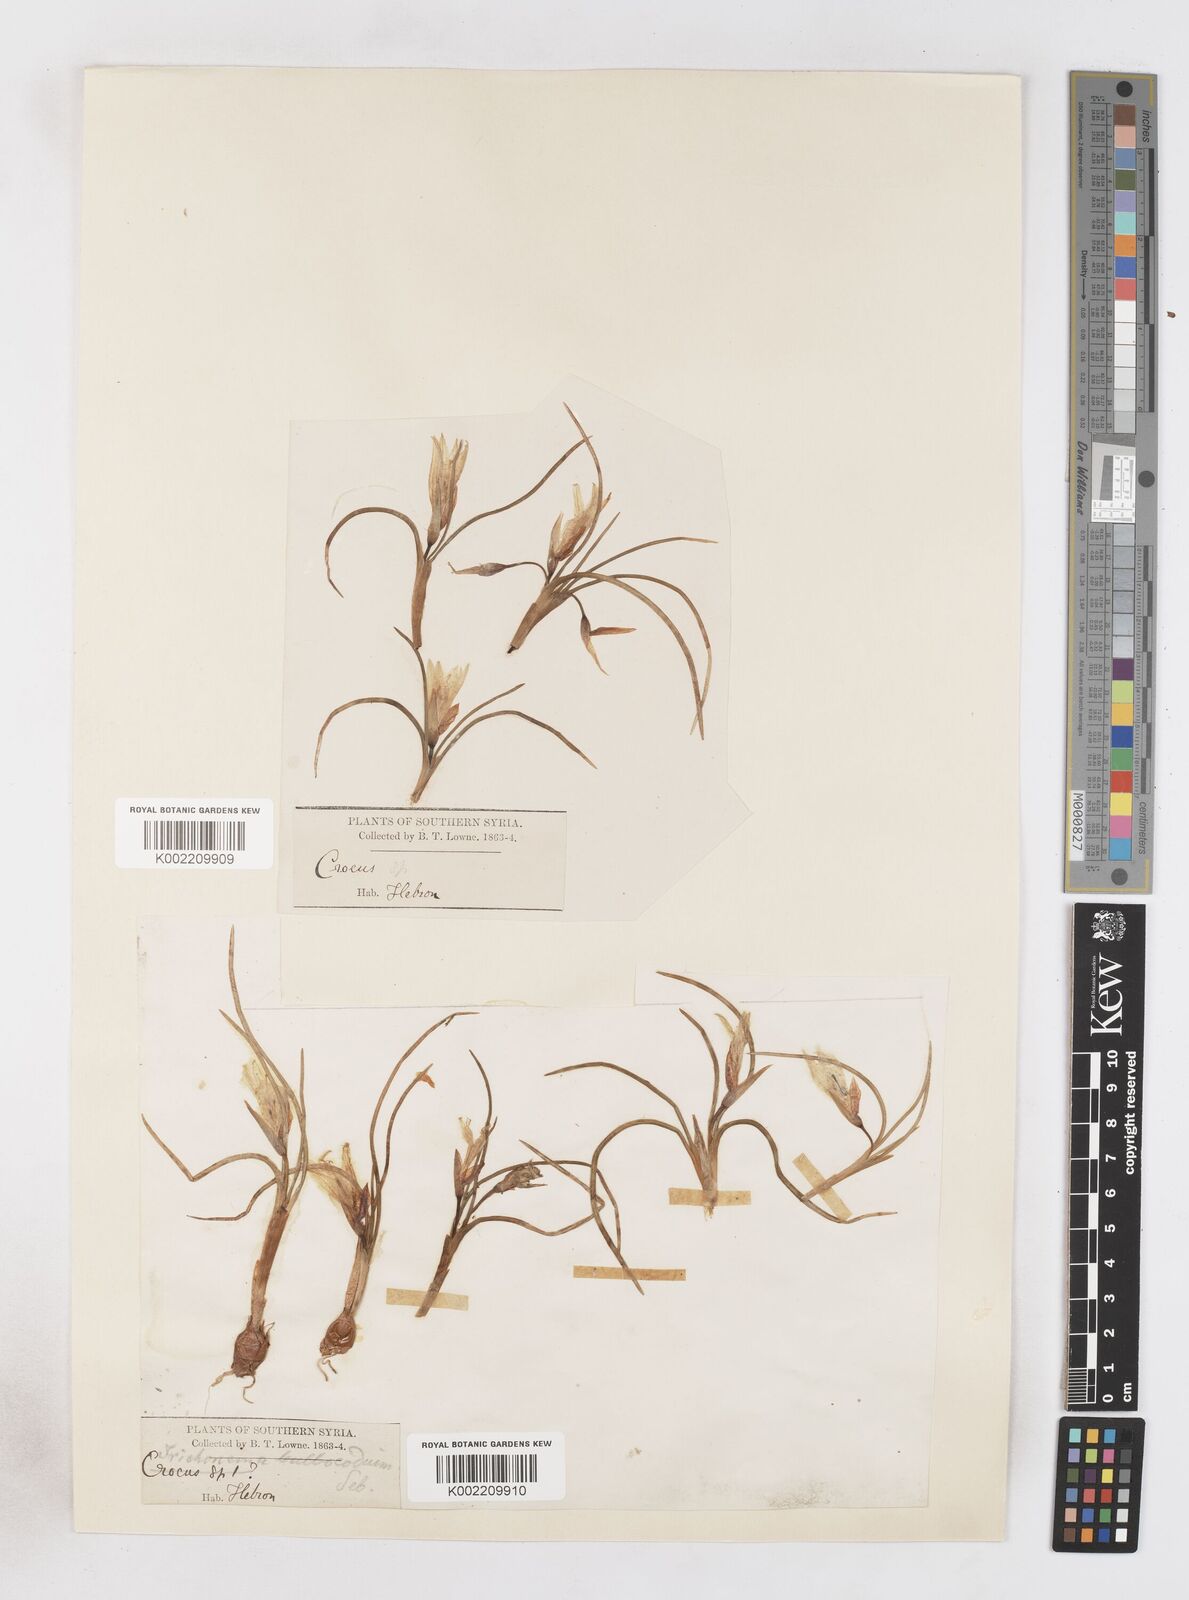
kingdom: Plantae
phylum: Tracheophyta
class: Liliopsida
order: Asparagales
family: Iridaceae
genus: Romulea
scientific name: Romulea bulbocodium
